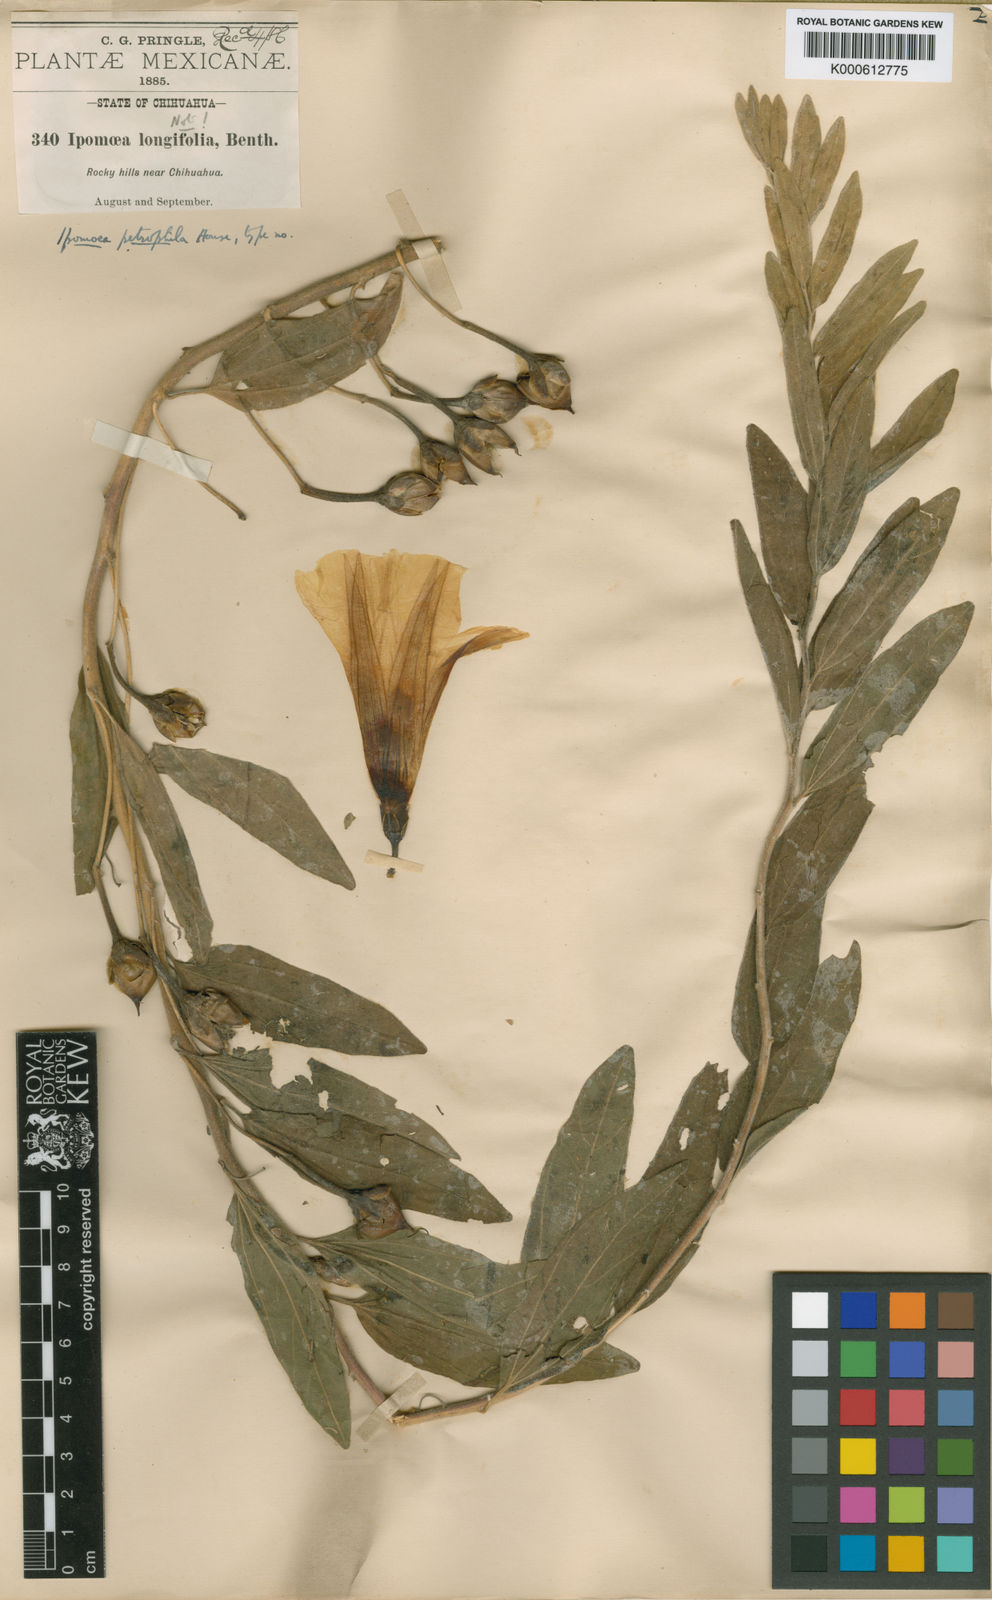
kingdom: Plantae
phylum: Tracheophyta
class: Magnoliopsida
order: Solanales
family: Convolvulaceae
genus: Ipomoea
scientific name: Ipomoea petrophila
